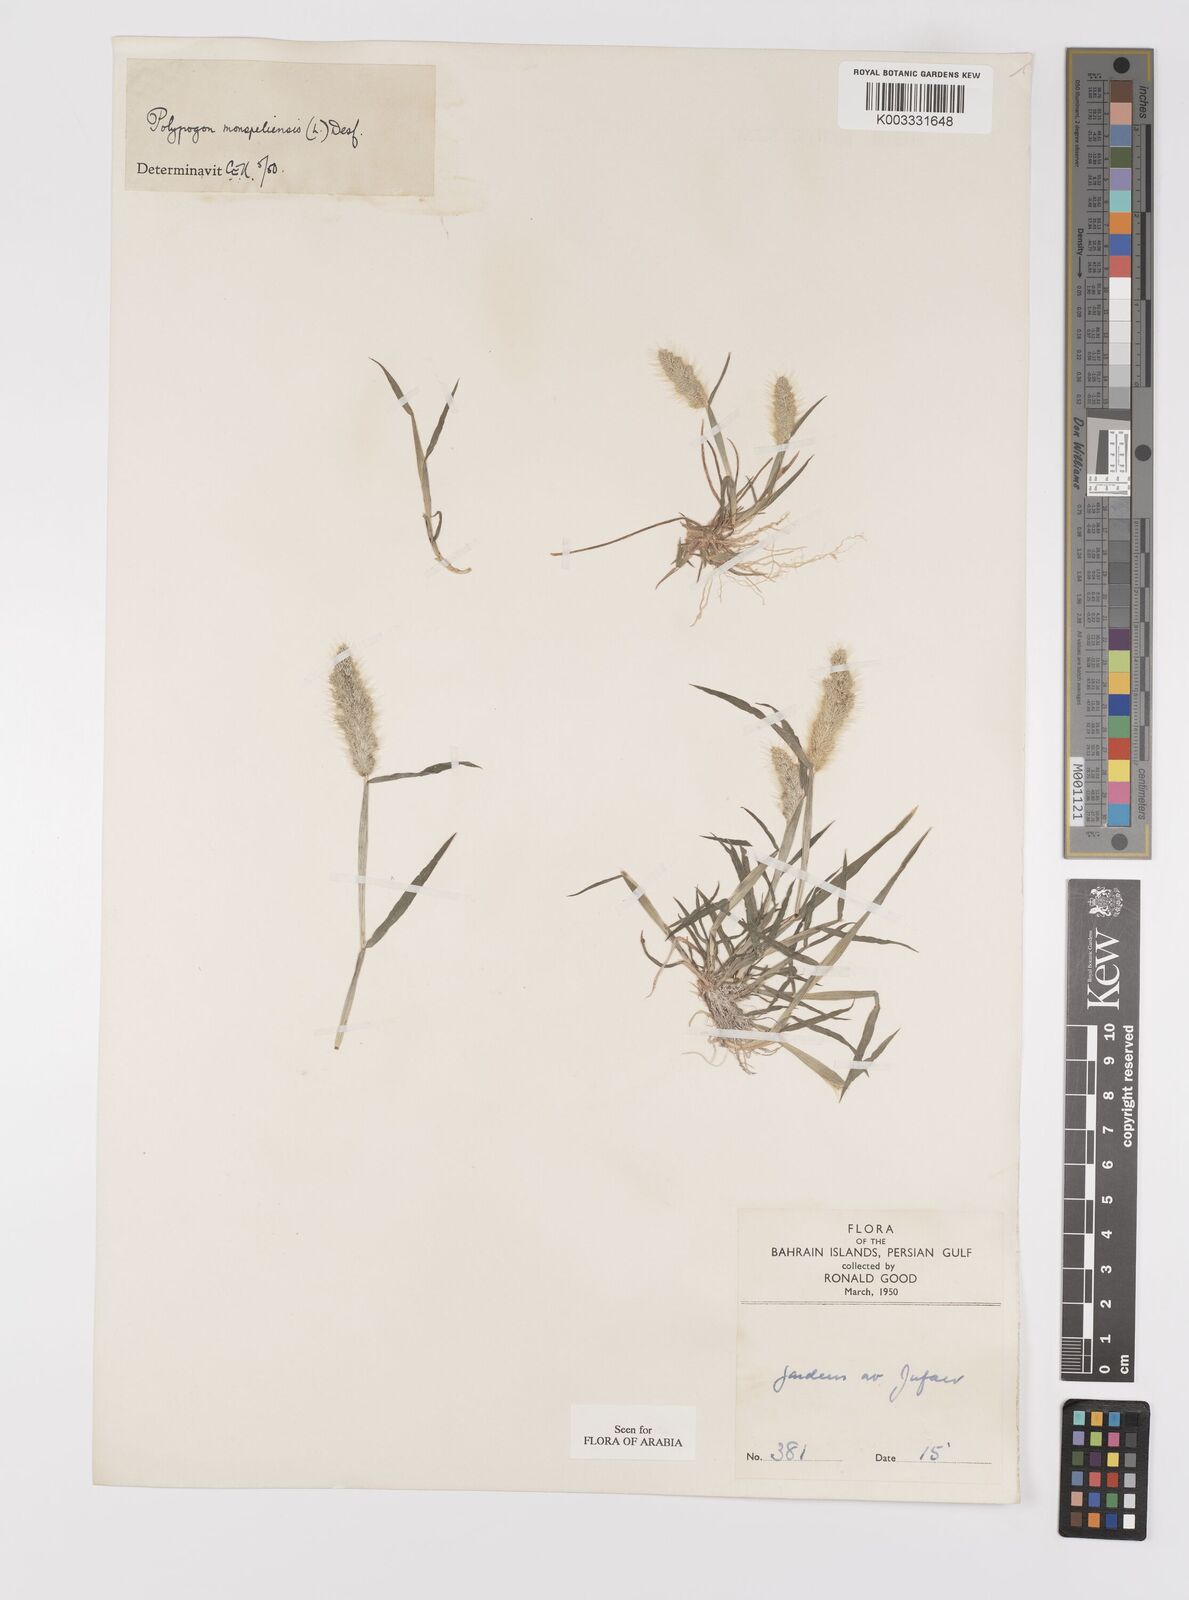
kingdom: Plantae
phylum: Tracheophyta
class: Liliopsida
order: Poales
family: Poaceae
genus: Polypogon
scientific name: Polypogon monspeliensis
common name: Annual rabbitsfoot grass
